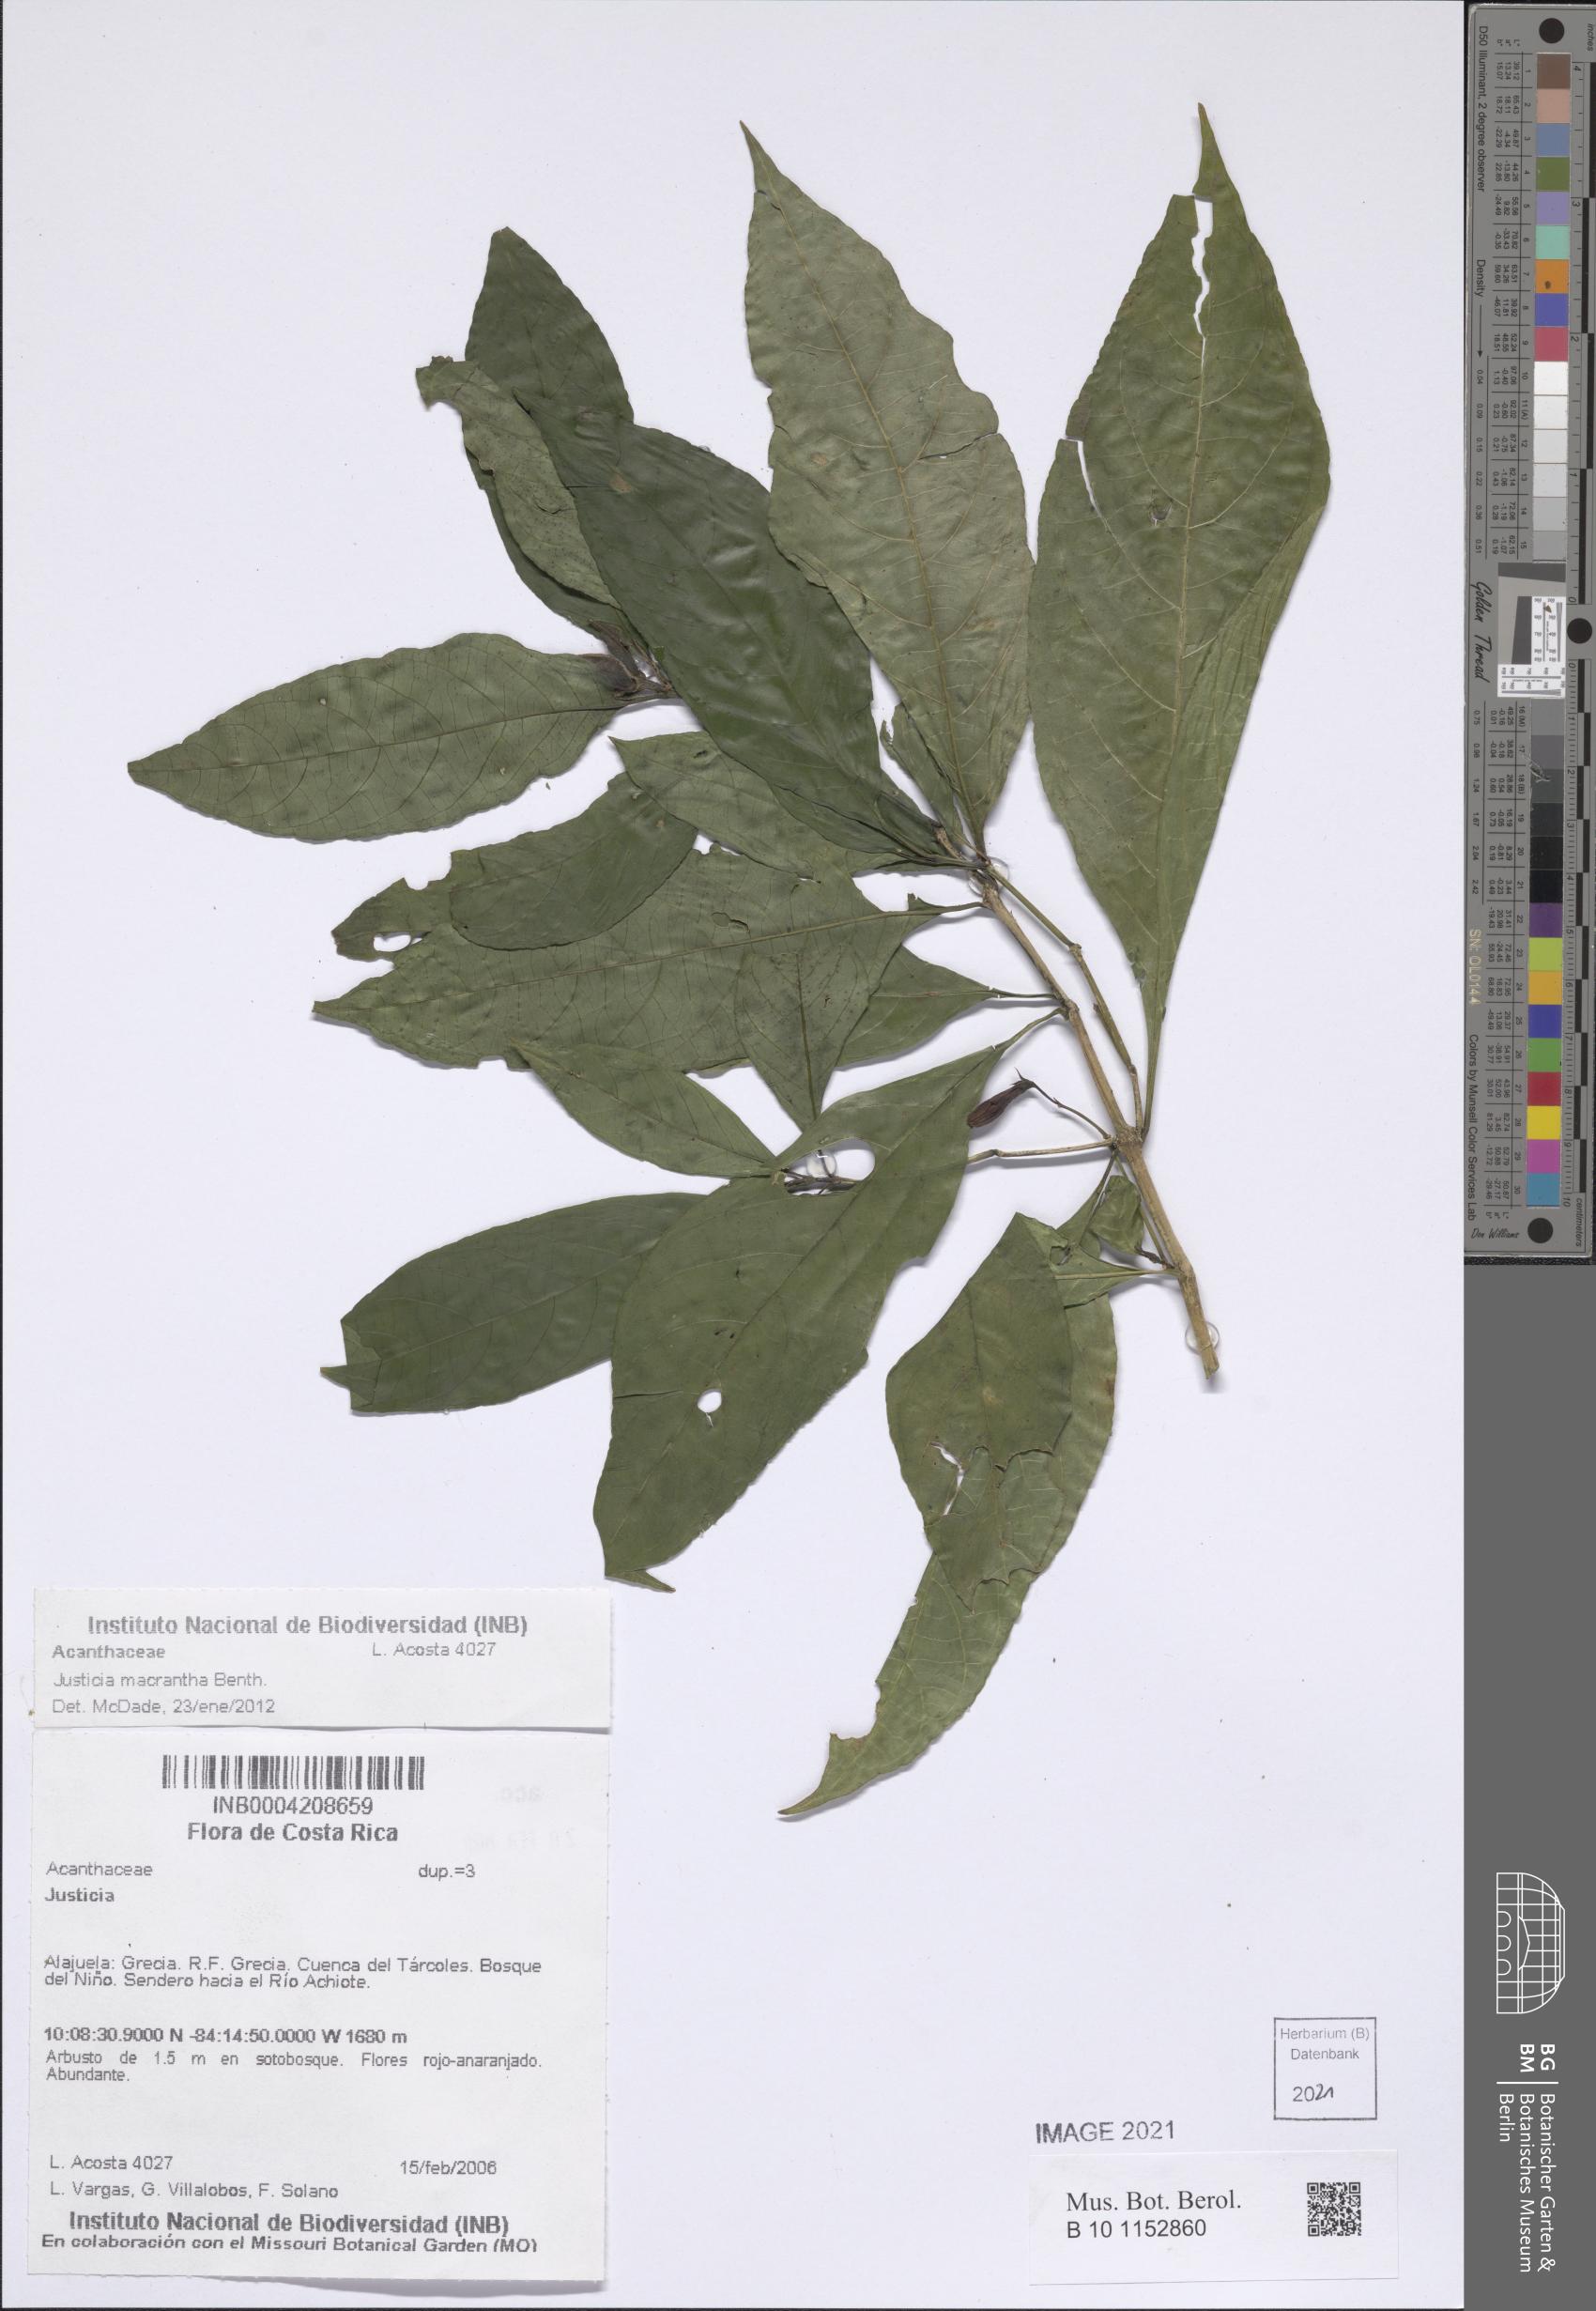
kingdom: Plantae
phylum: Tracheophyta
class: Magnoliopsida
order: Lamiales
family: Acanthaceae
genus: Justicia
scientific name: Justicia macrantha
